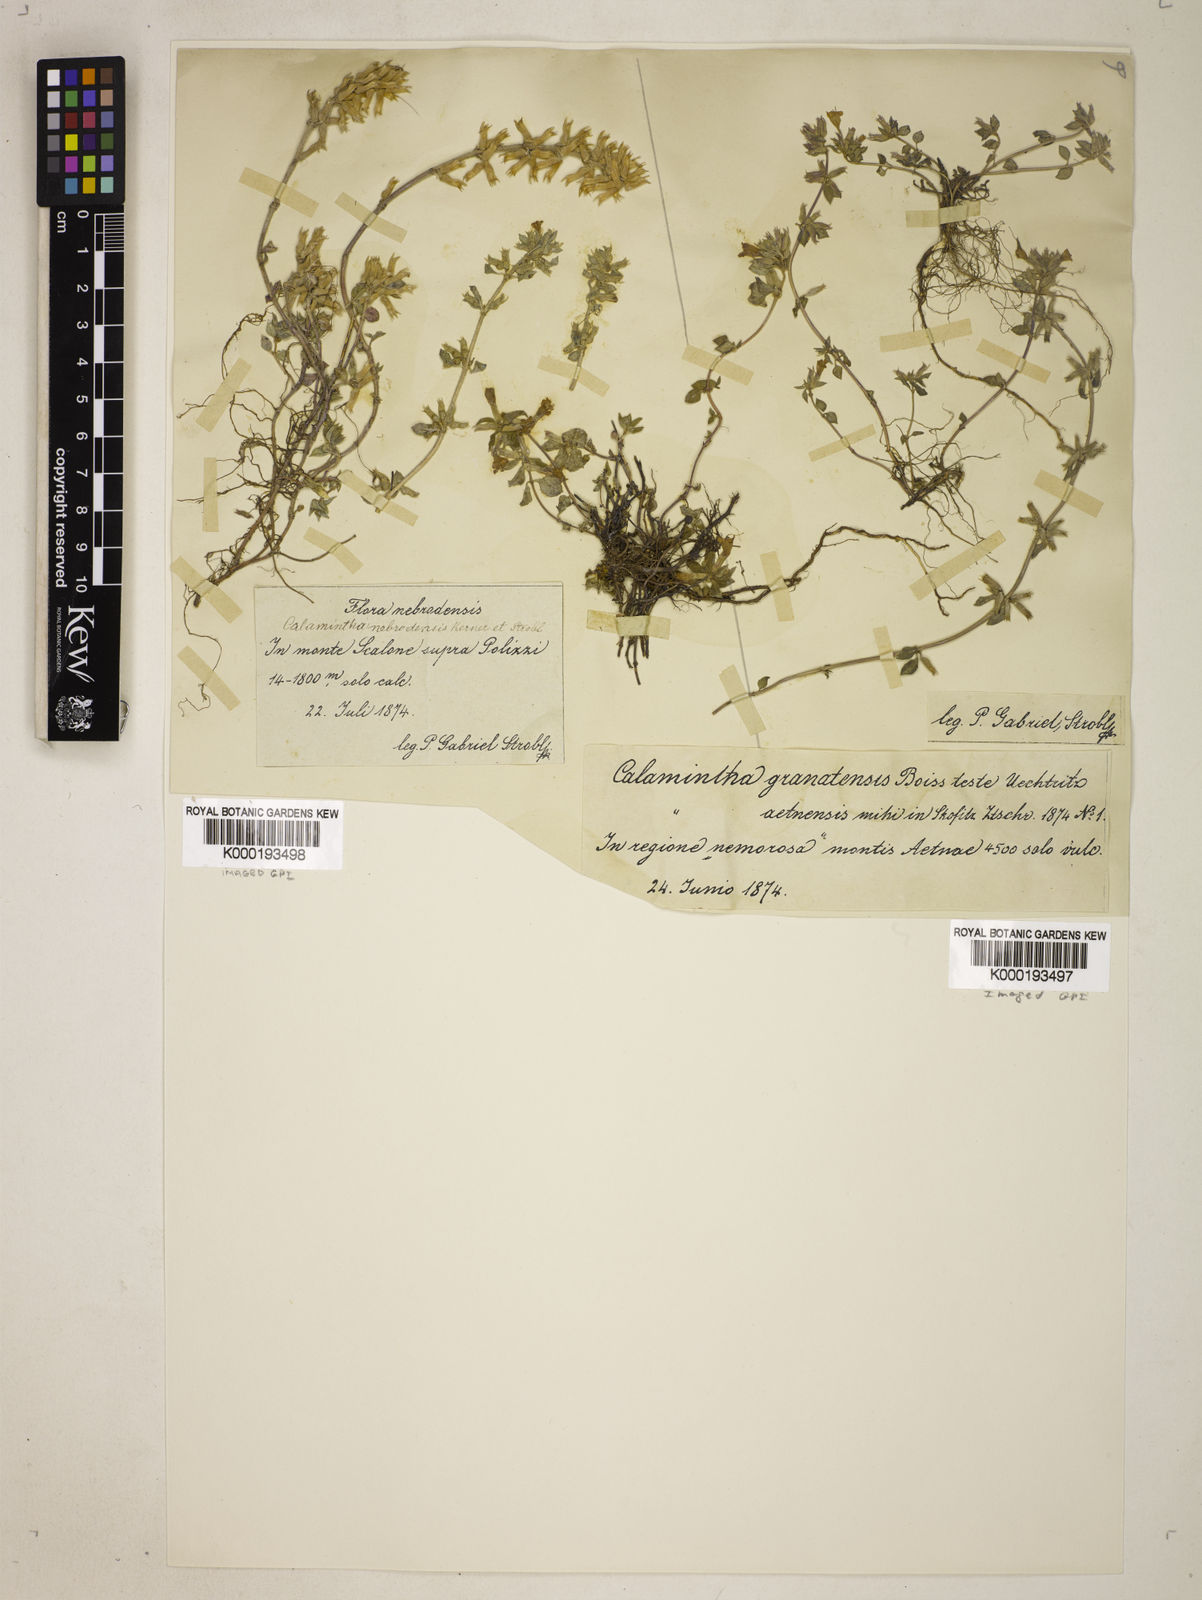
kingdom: Plantae
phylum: Tracheophyta
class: Magnoliopsida
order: Lamiales
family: Lamiaceae
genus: Clinopodium
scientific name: Clinopodium alpinum
